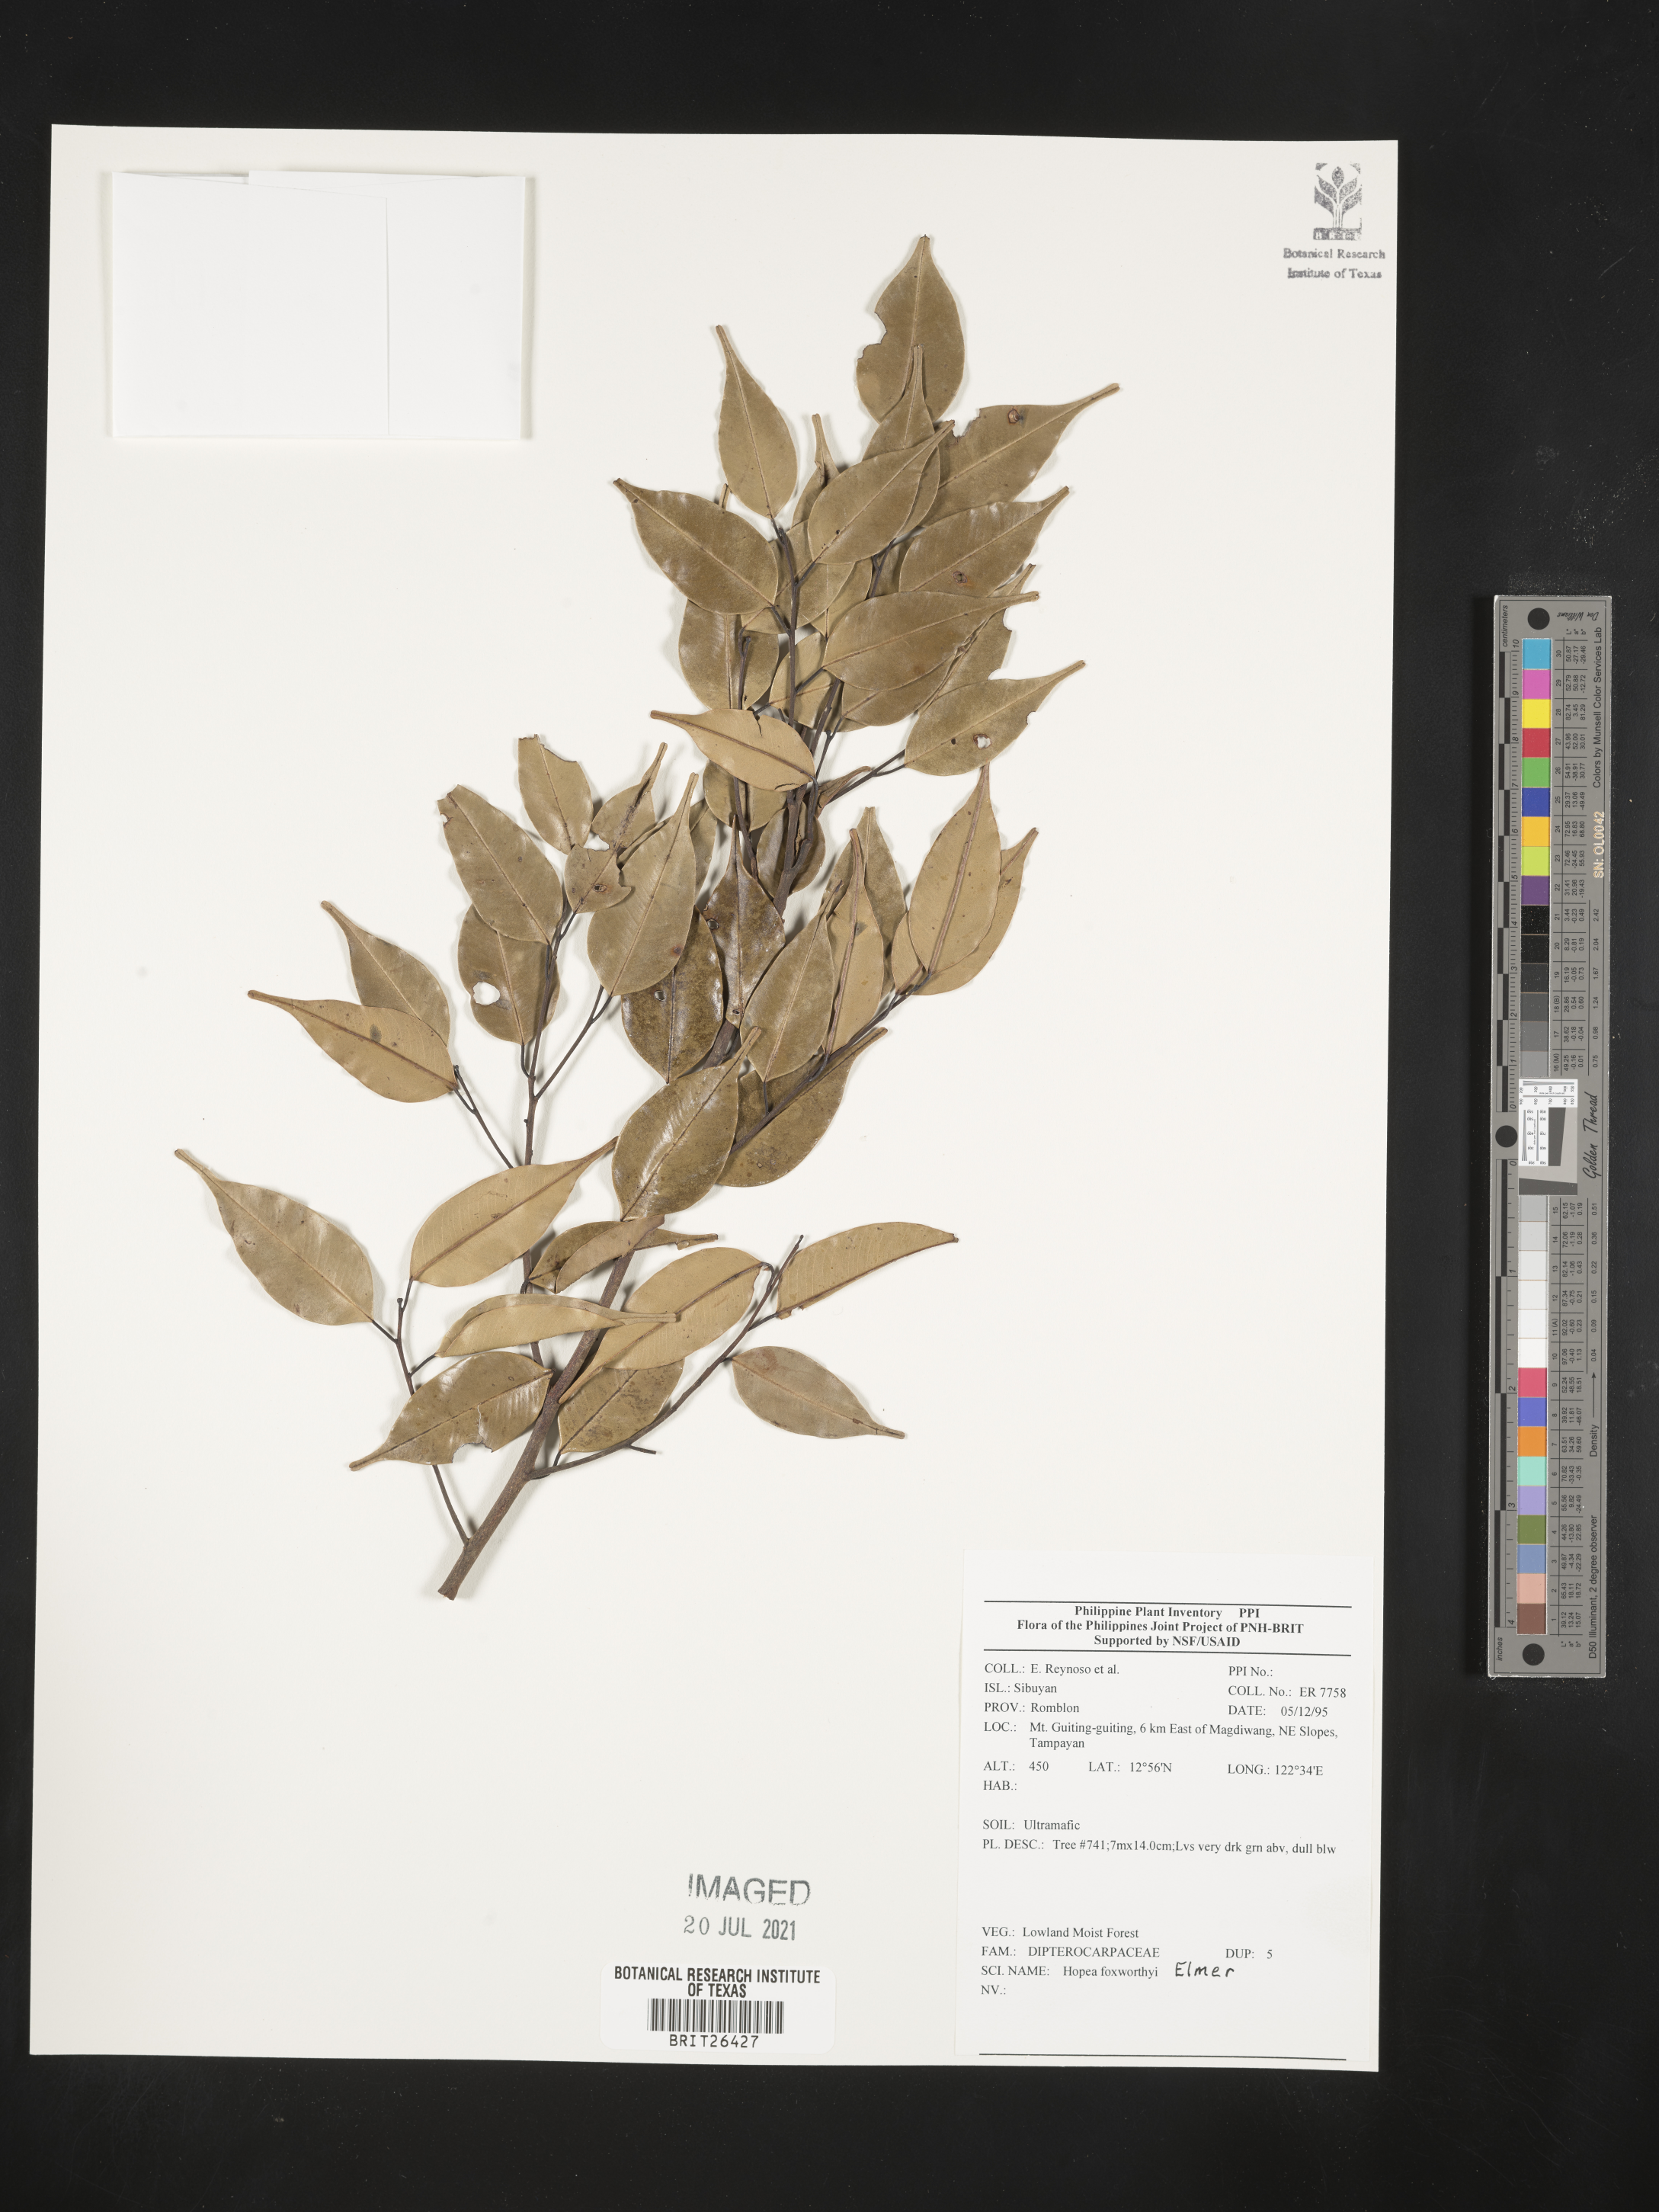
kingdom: Plantae
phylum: Tracheophyta
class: Magnoliopsida
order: Malvales
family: Dipterocarpaceae
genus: Hopea
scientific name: Hopea foxworthyi
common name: Dalingdingan
